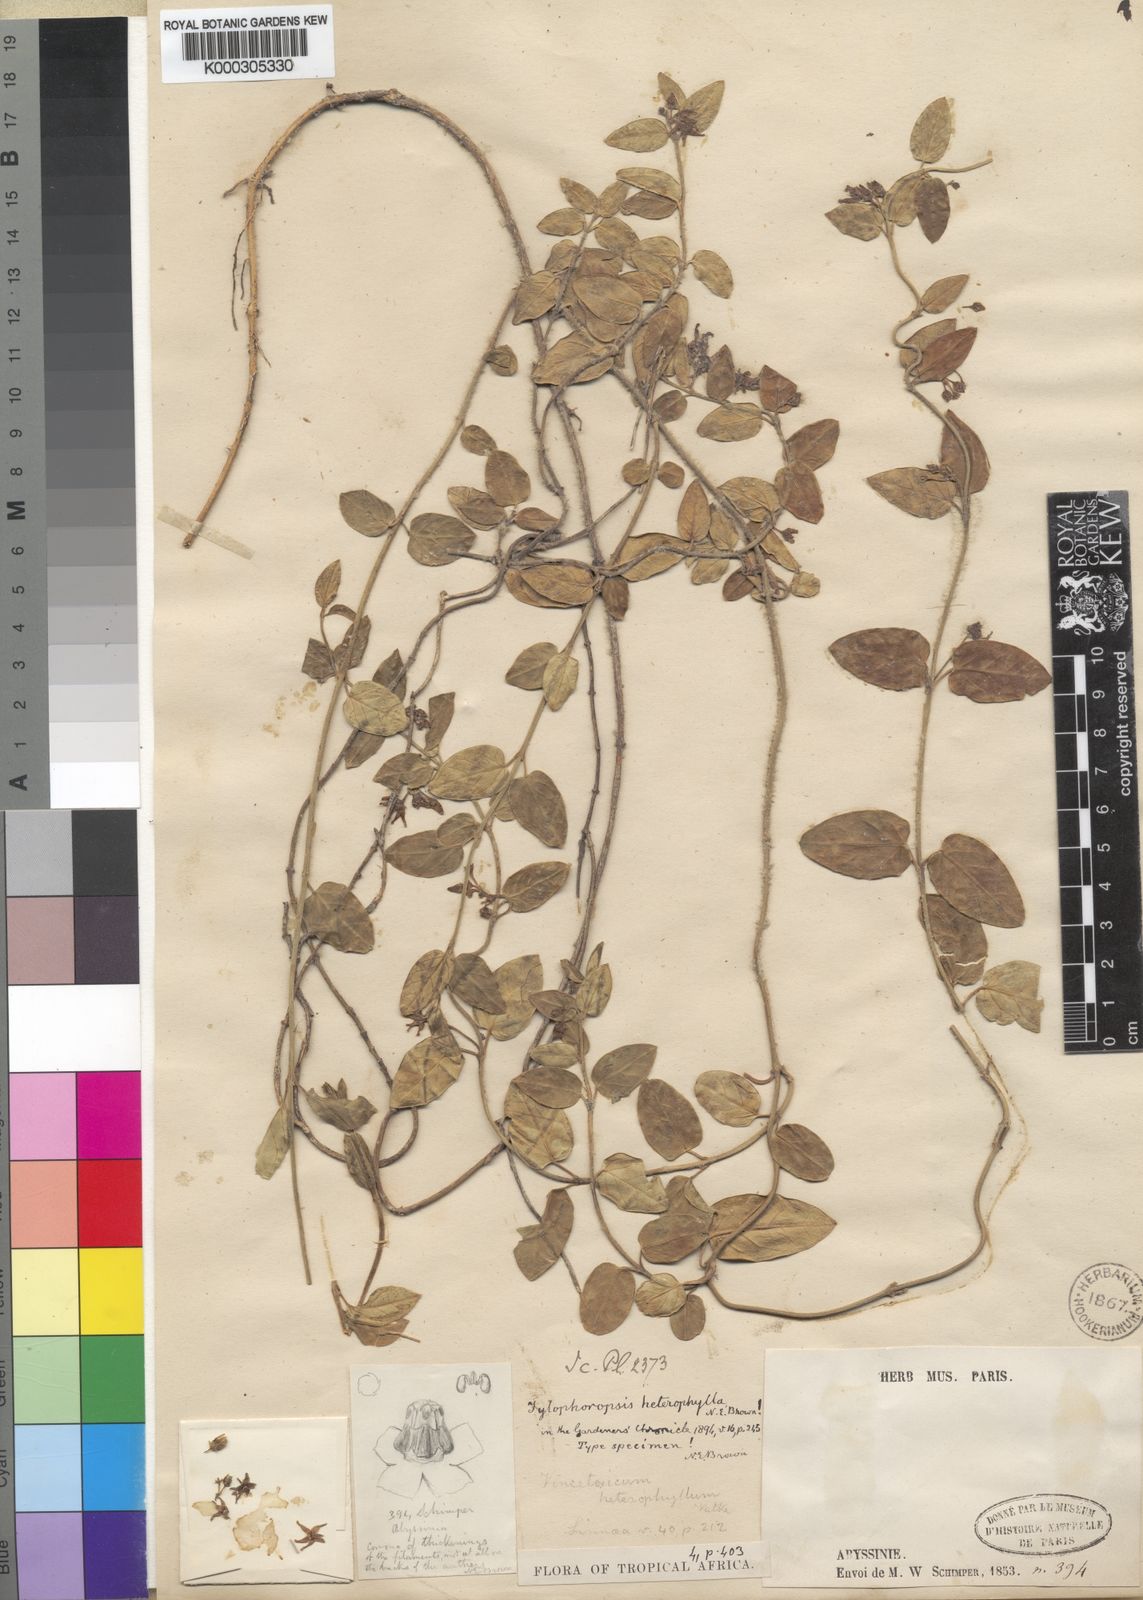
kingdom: Plantae
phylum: Tracheophyta
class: Magnoliopsida
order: Gentianales
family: Apocynaceae
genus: Vincetoxicum
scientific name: Vincetoxicum heterophyllum
